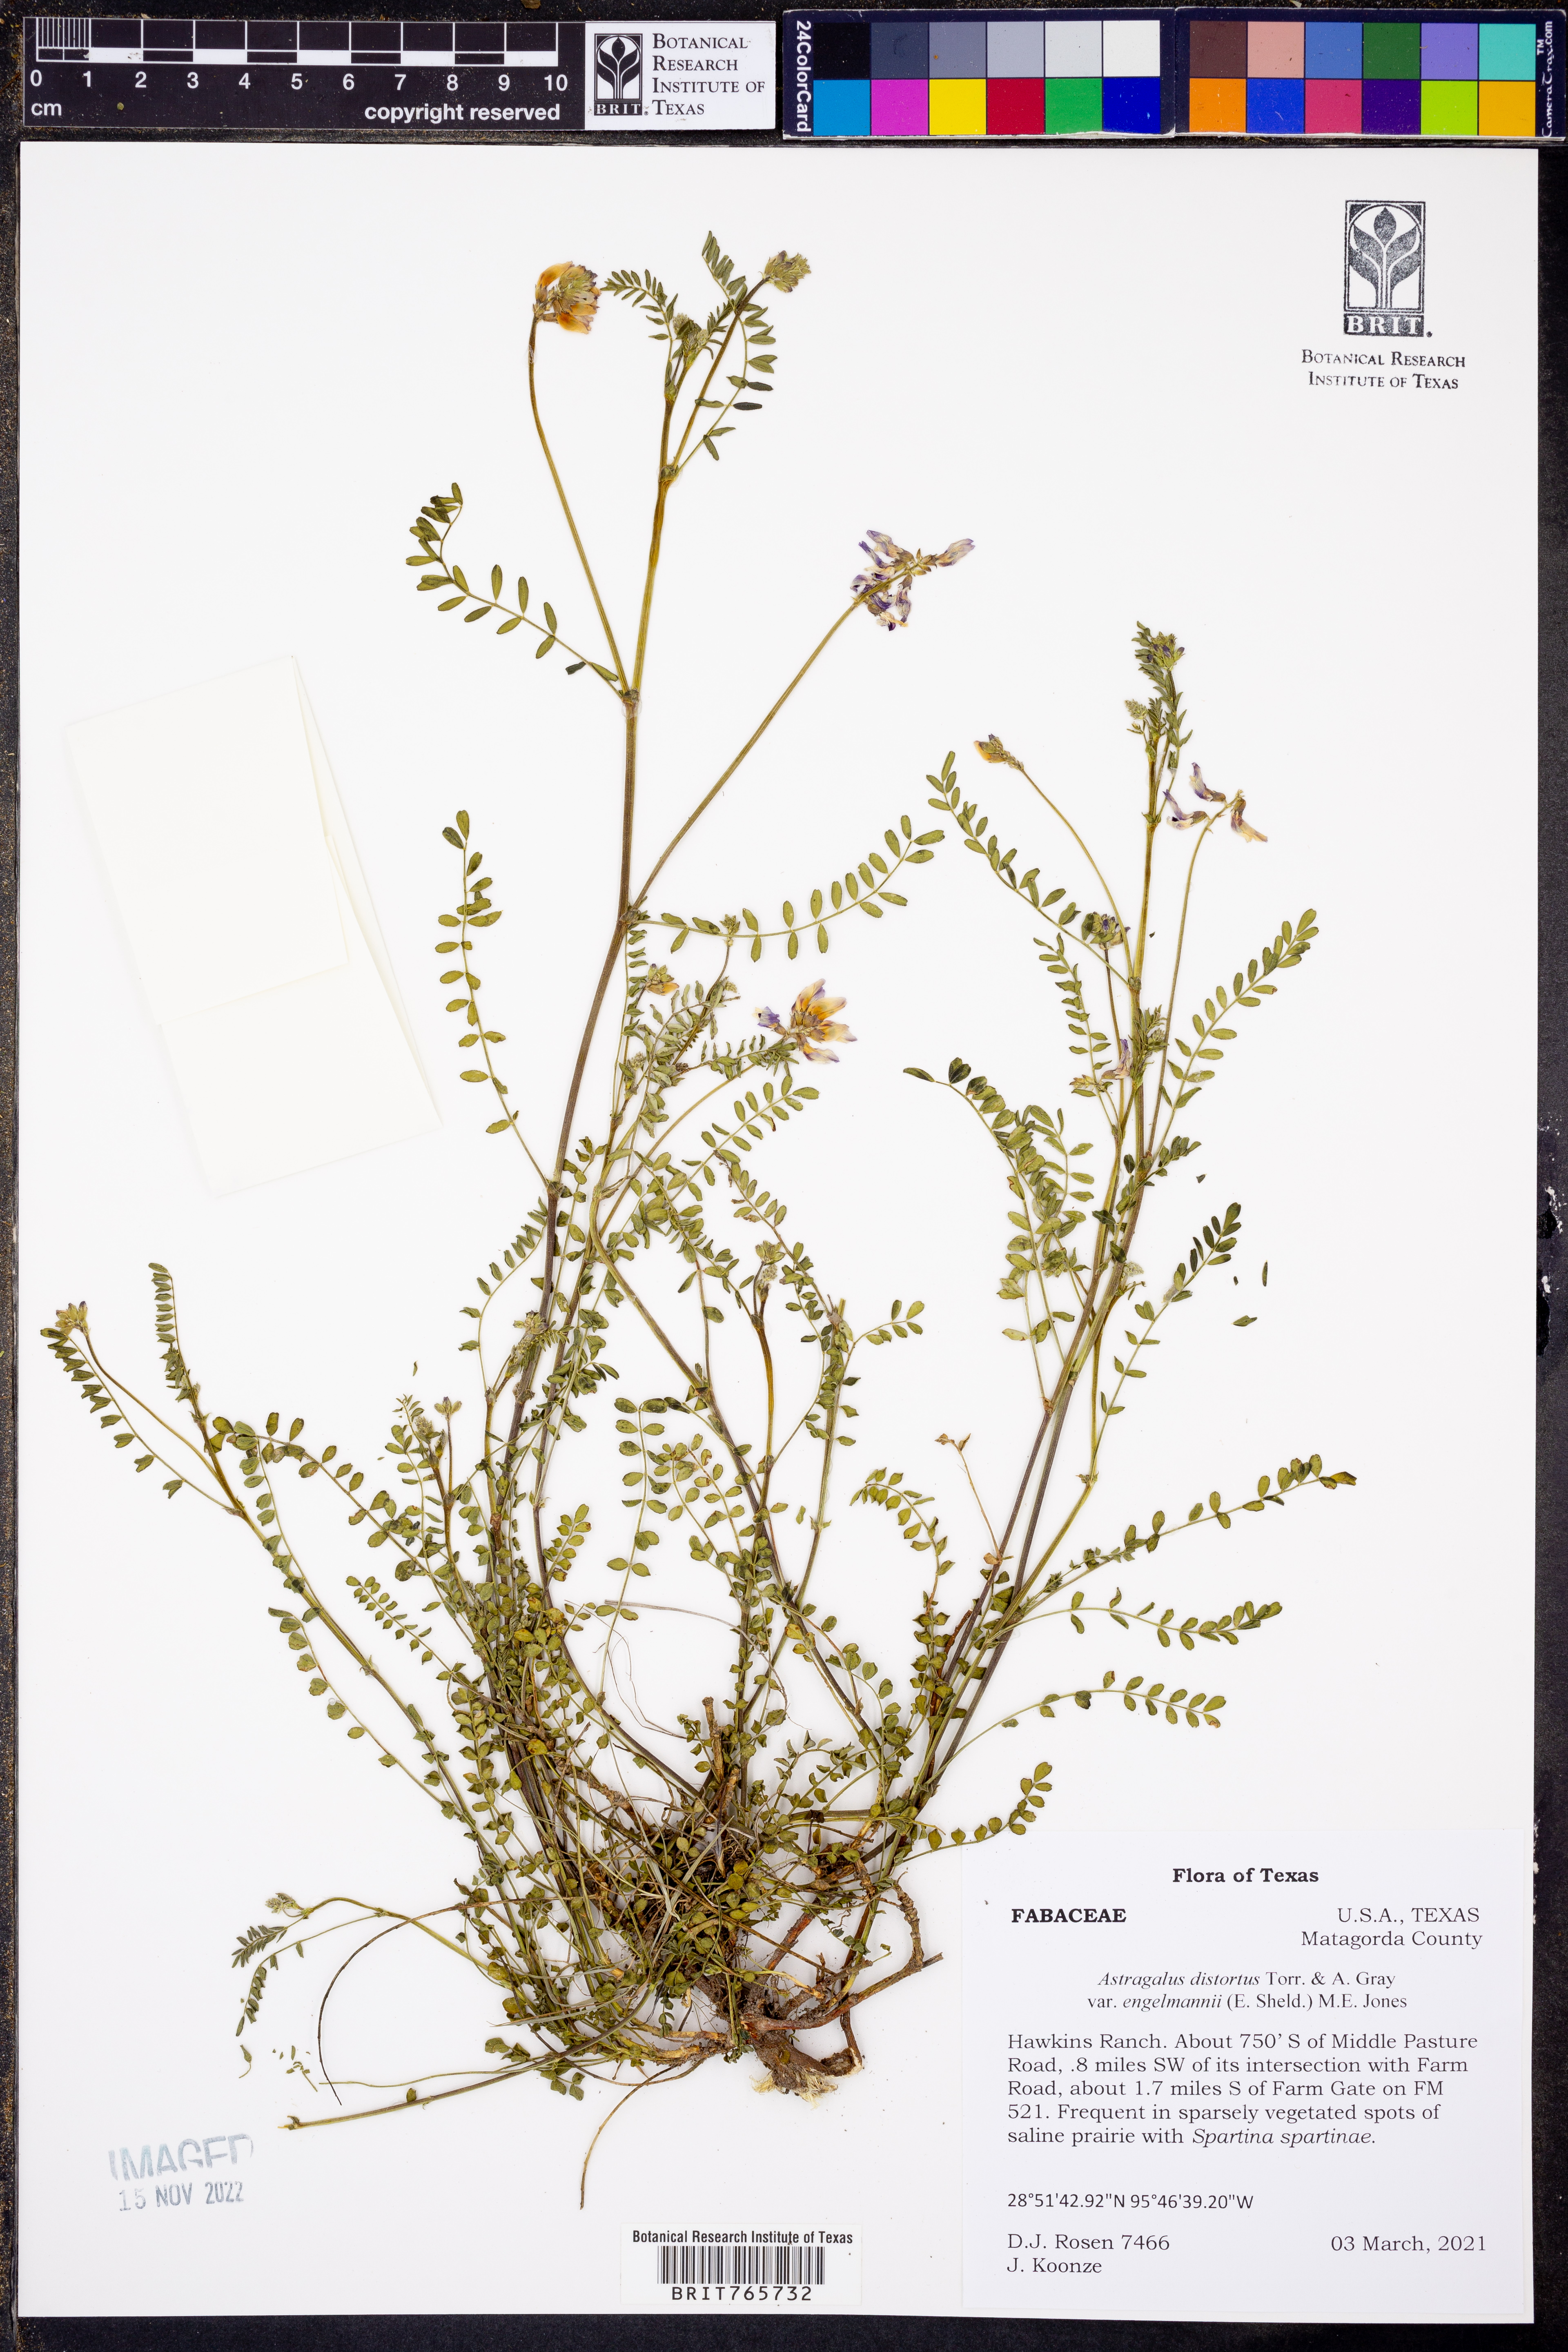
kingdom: Plantae
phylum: Tracheophyta
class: Magnoliopsida
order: Fabales
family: Fabaceae
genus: Astragalus
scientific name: Astragalus distortus
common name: Ozark milk-vetch
